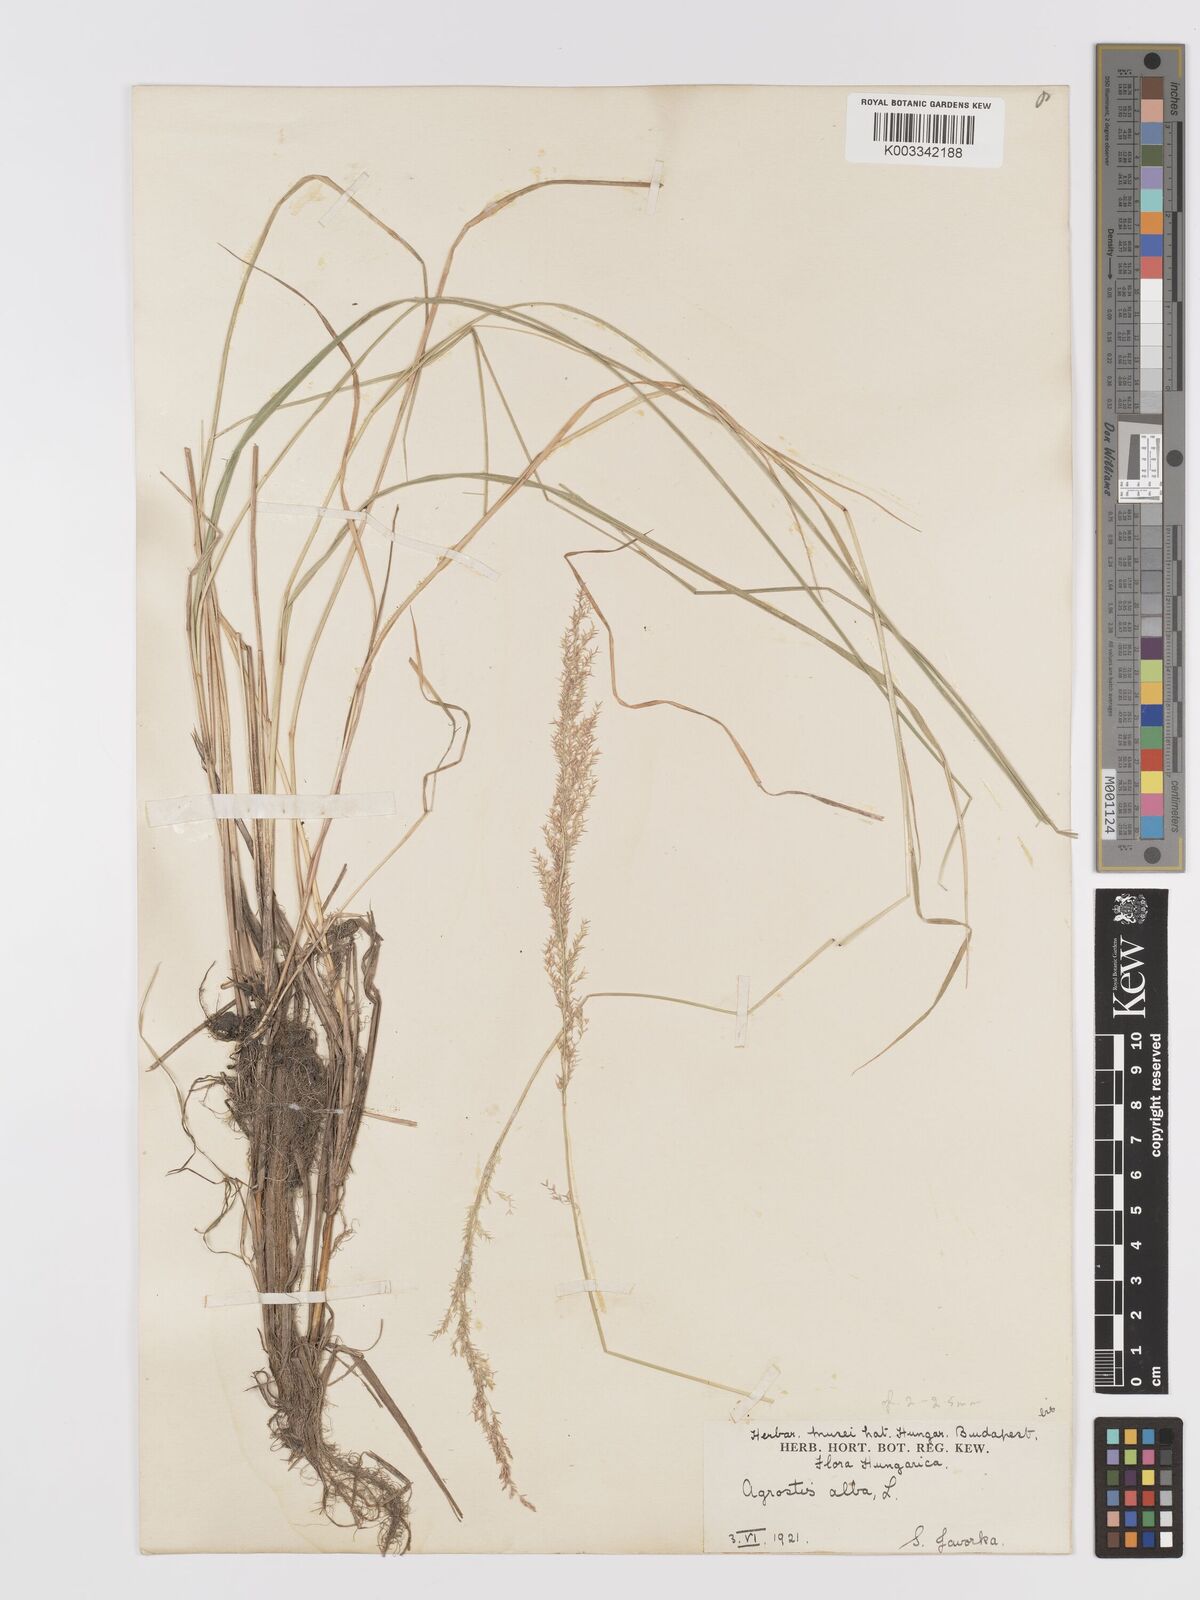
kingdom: Plantae
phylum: Tracheophyta
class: Liliopsida
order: Poales
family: Poaceae
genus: Agrostis
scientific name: Agrostis stolonifera
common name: Creeping bentgrass
